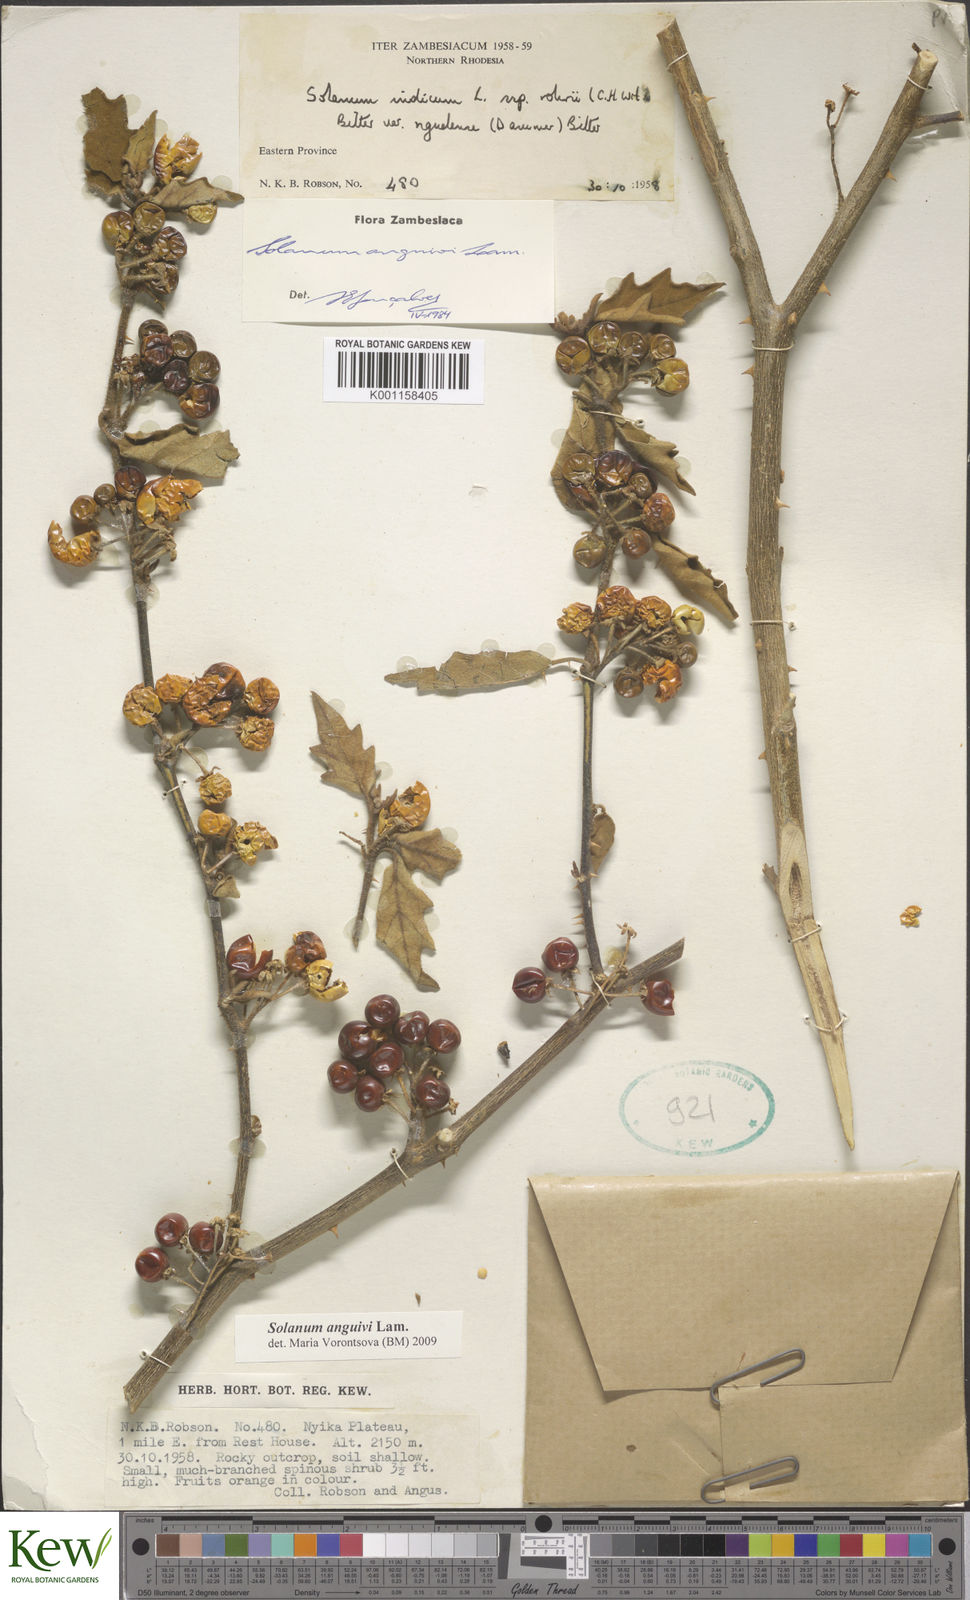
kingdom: Plantae
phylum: Tracheophyta
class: Magnoliopsida
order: Solanales
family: Solanaceae
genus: Solanum
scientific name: Solanum anguivi
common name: Forest bitterberry
